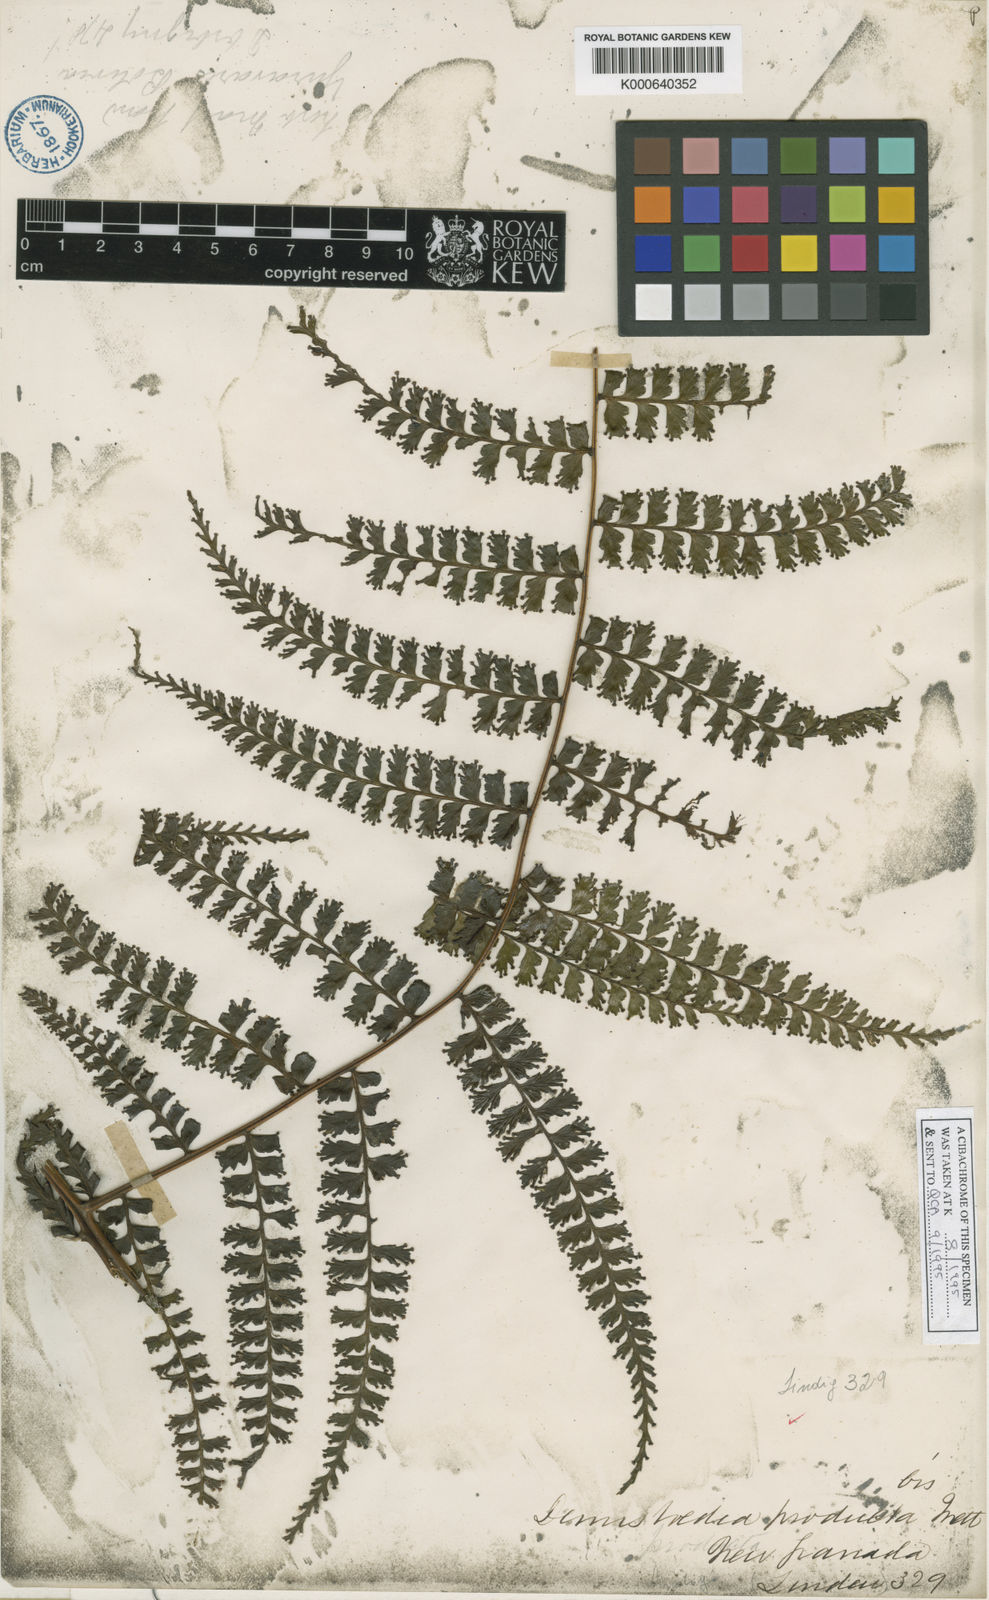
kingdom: Plantae
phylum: Tracheophyta
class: Polypodiopsida
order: Polypodiales
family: Dennstaedtiaceae
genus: Dennstaedtia
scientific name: Dennstaedtia producta
